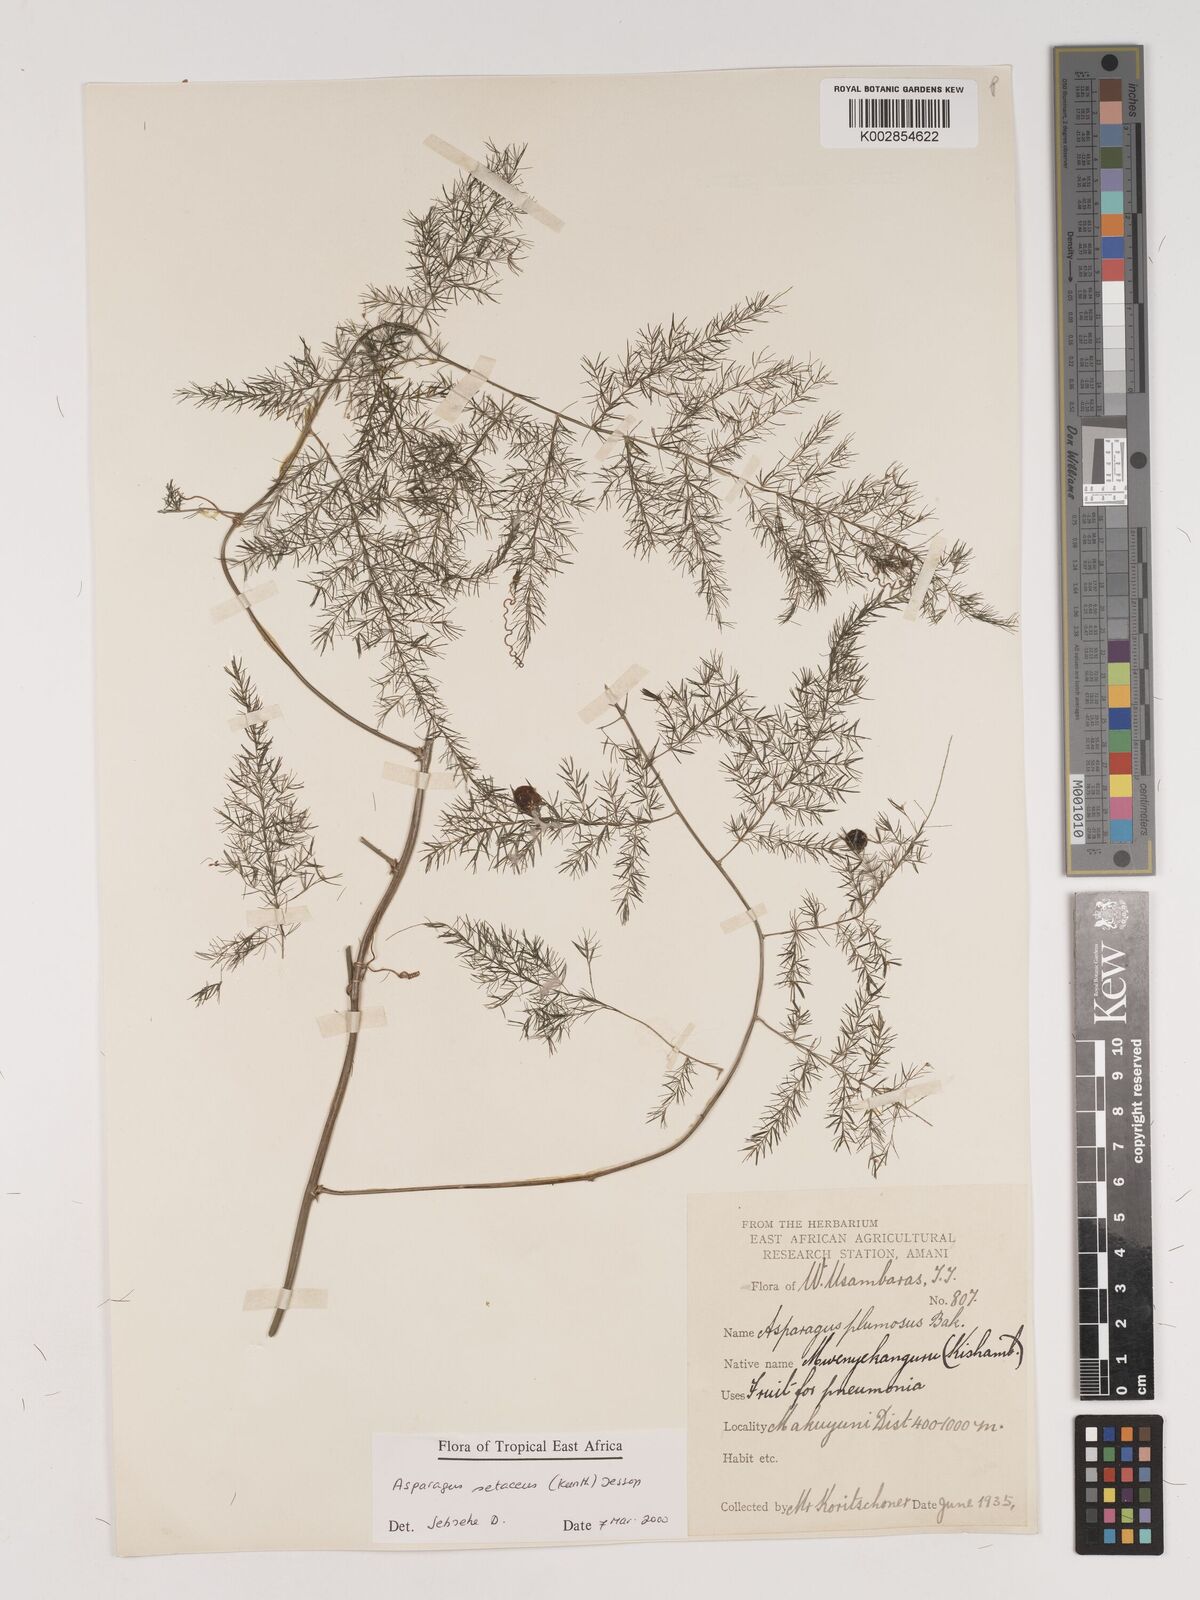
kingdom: Plantae
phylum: Tracheophyta
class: Liliopsida
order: Asparagales
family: Asparagaceae
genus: Asparagus
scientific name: Asparagus setaceus
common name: Common asparagus fern
